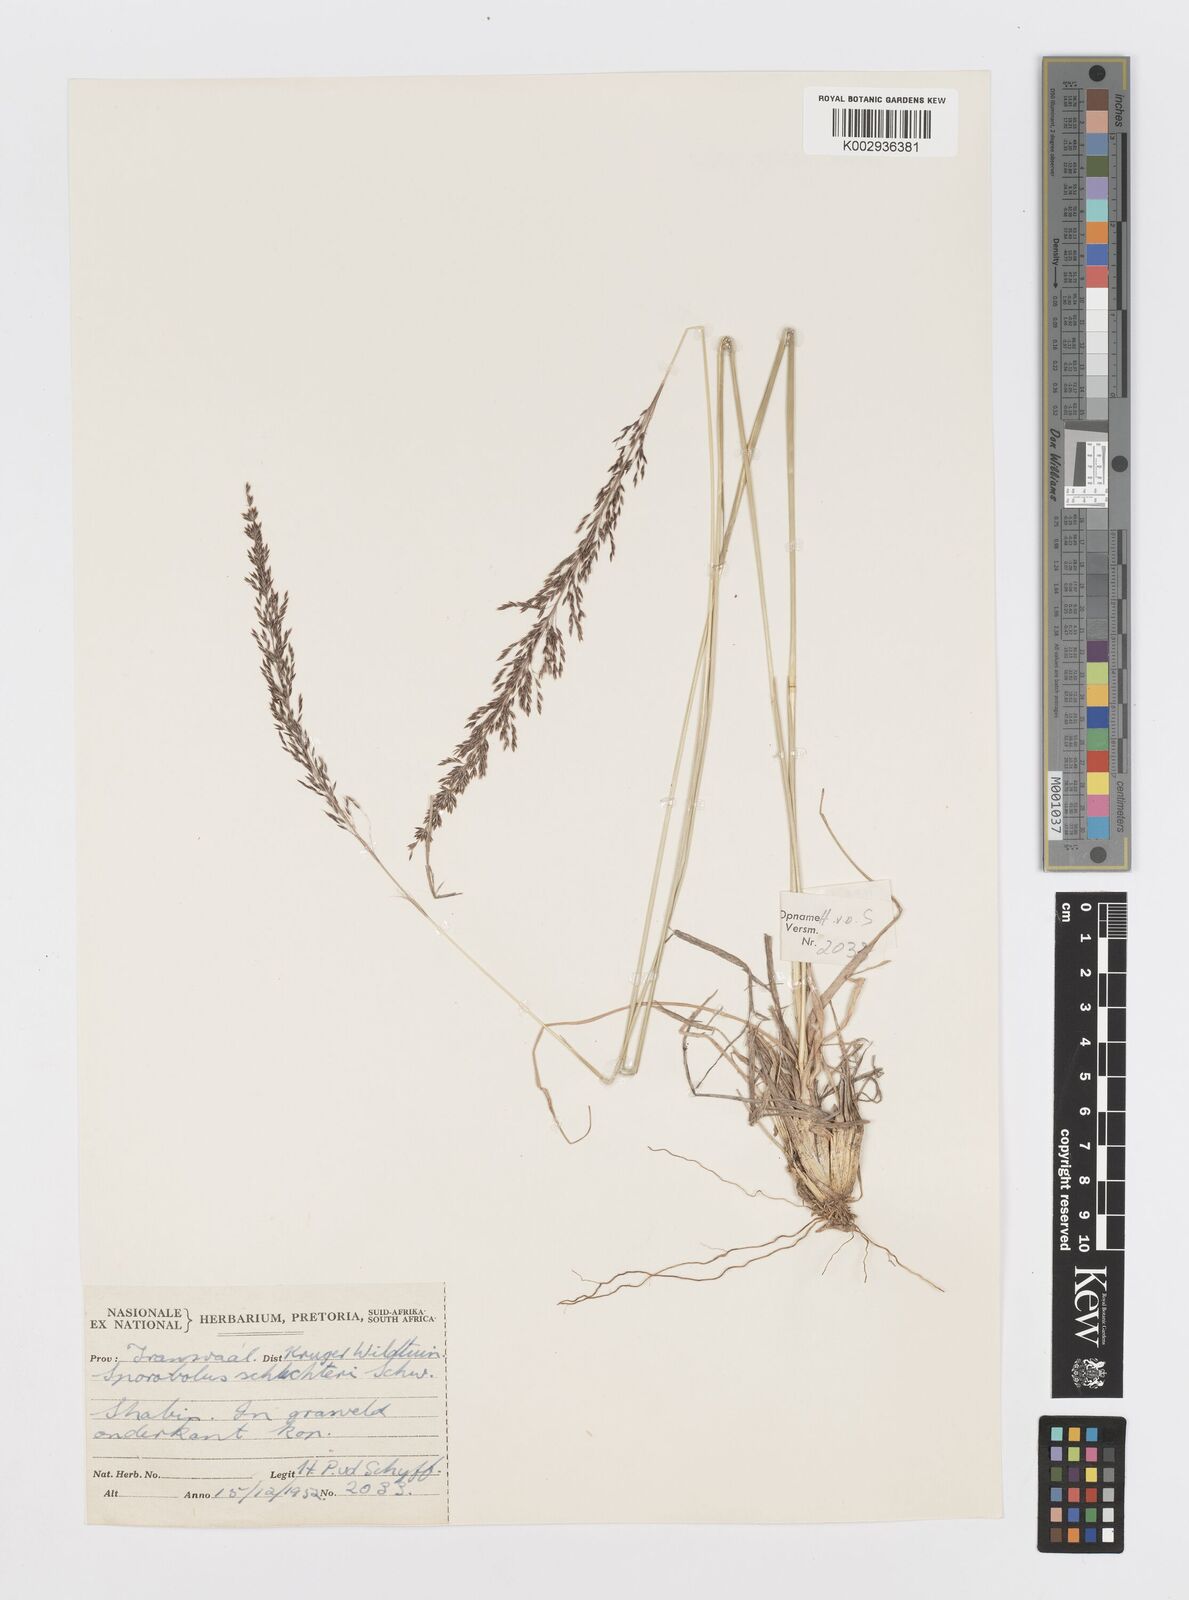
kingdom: Plantae
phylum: Tracheophyta
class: Liliopsida
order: Poales
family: Poaceae
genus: Sporobolus
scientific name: Sporobolus sanguineus
